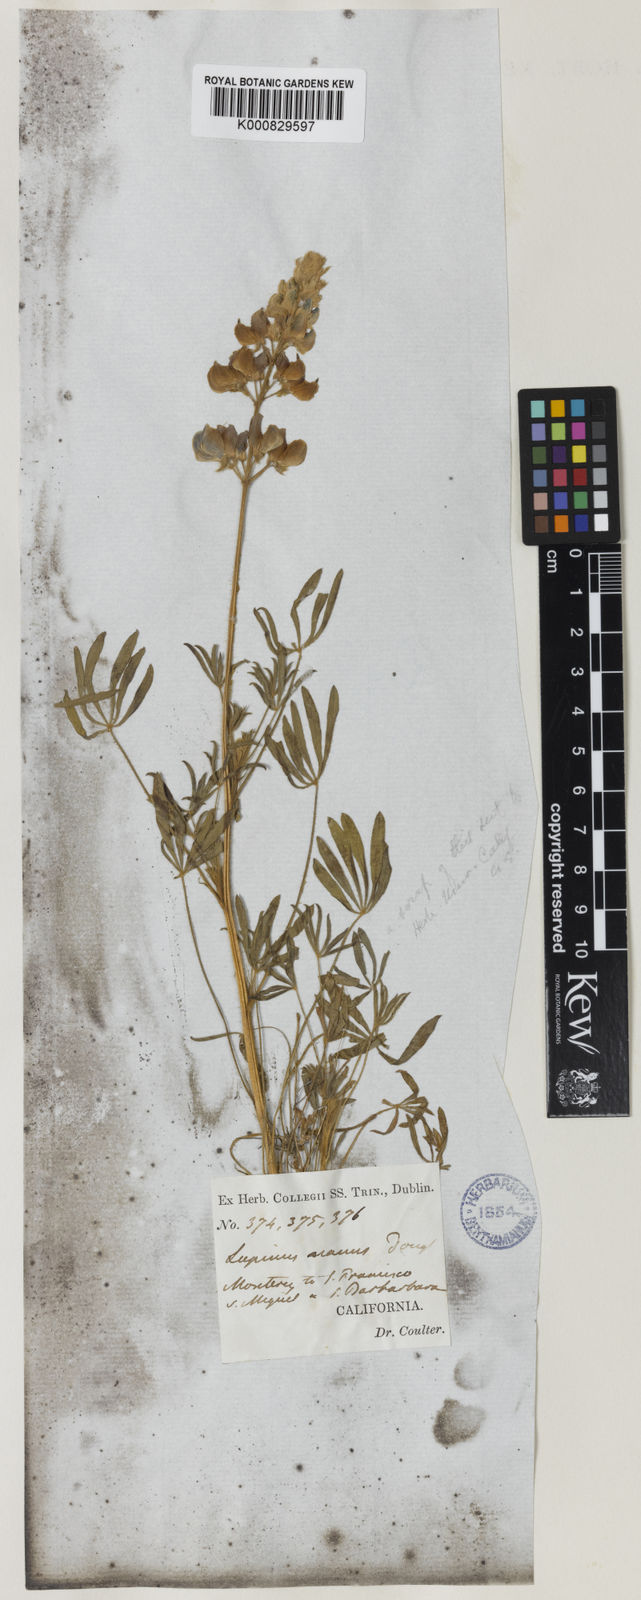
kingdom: Plantae
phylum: Tracheophyta
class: Magnoliopsida
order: Fabales
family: Fabaceae
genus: Lupinus
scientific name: Lupinus nanus
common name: Orean blue lupin
